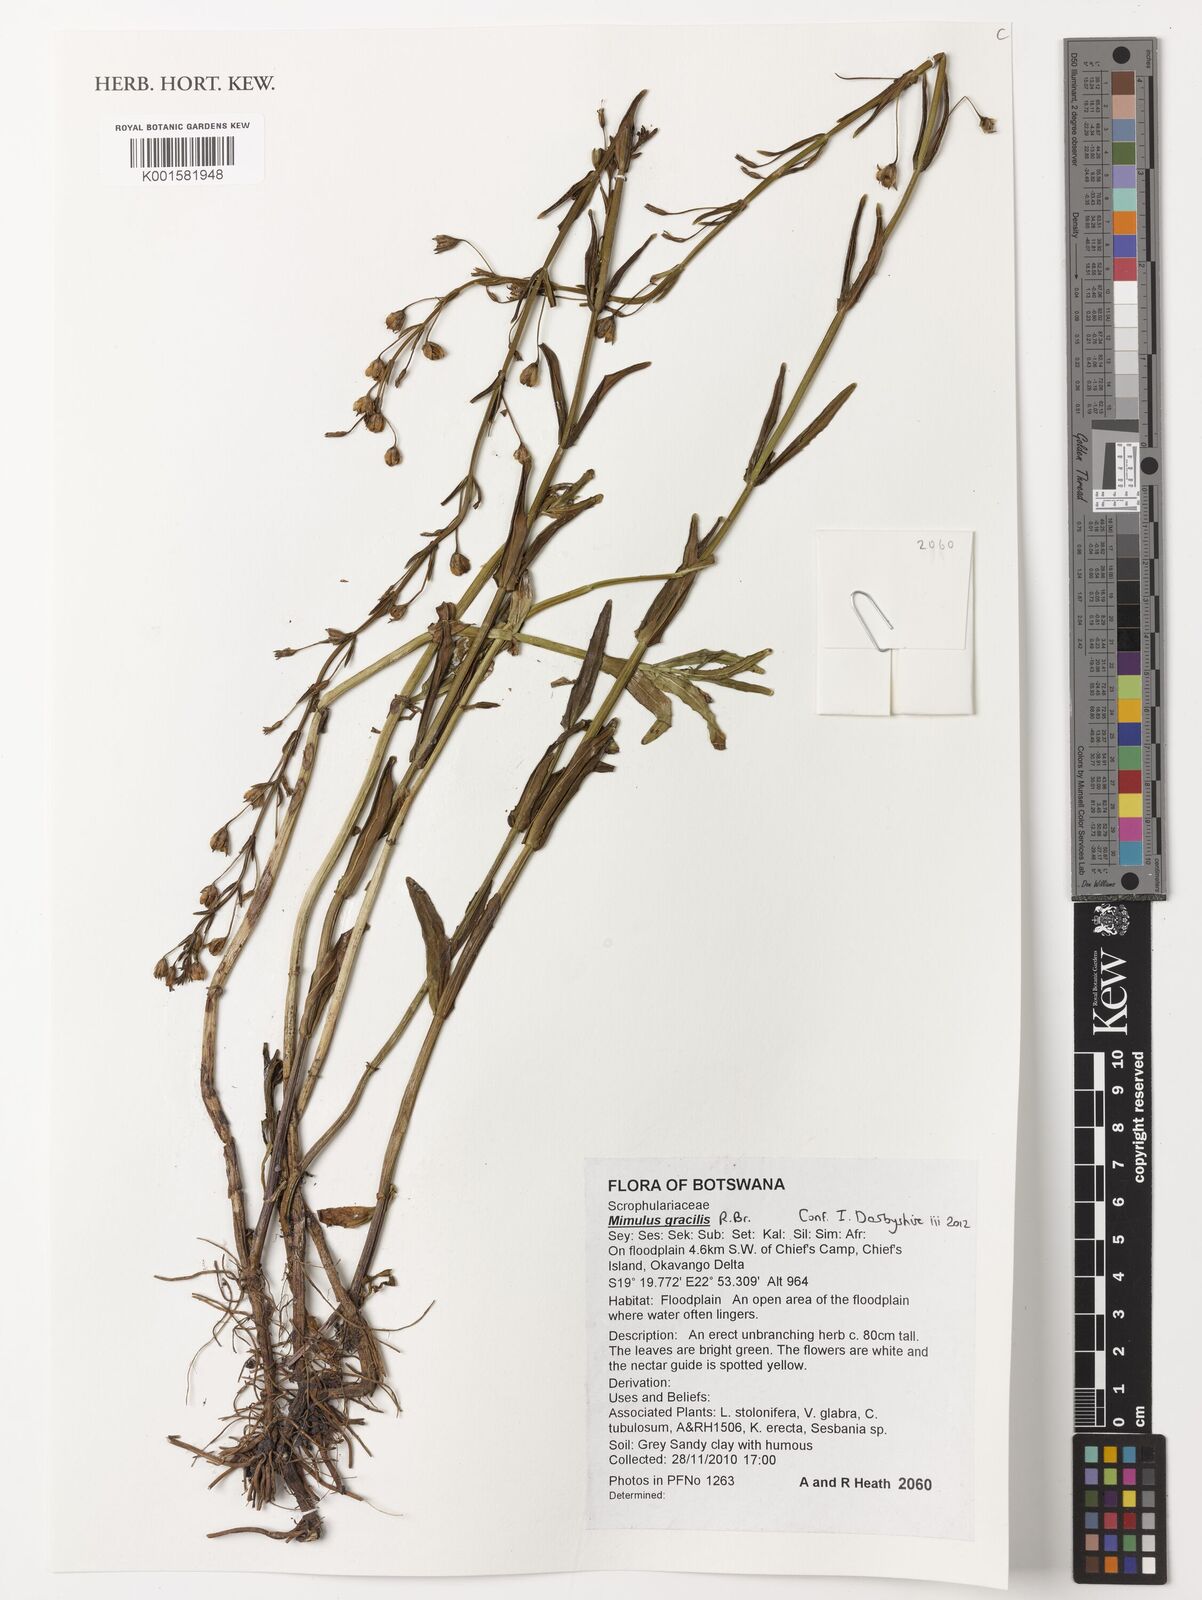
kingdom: Plantae
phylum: Tracheophyta
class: Magnoliopsida
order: Lamiales
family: Phrymaceae
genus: Mimulus
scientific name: Mimulus gracilis
